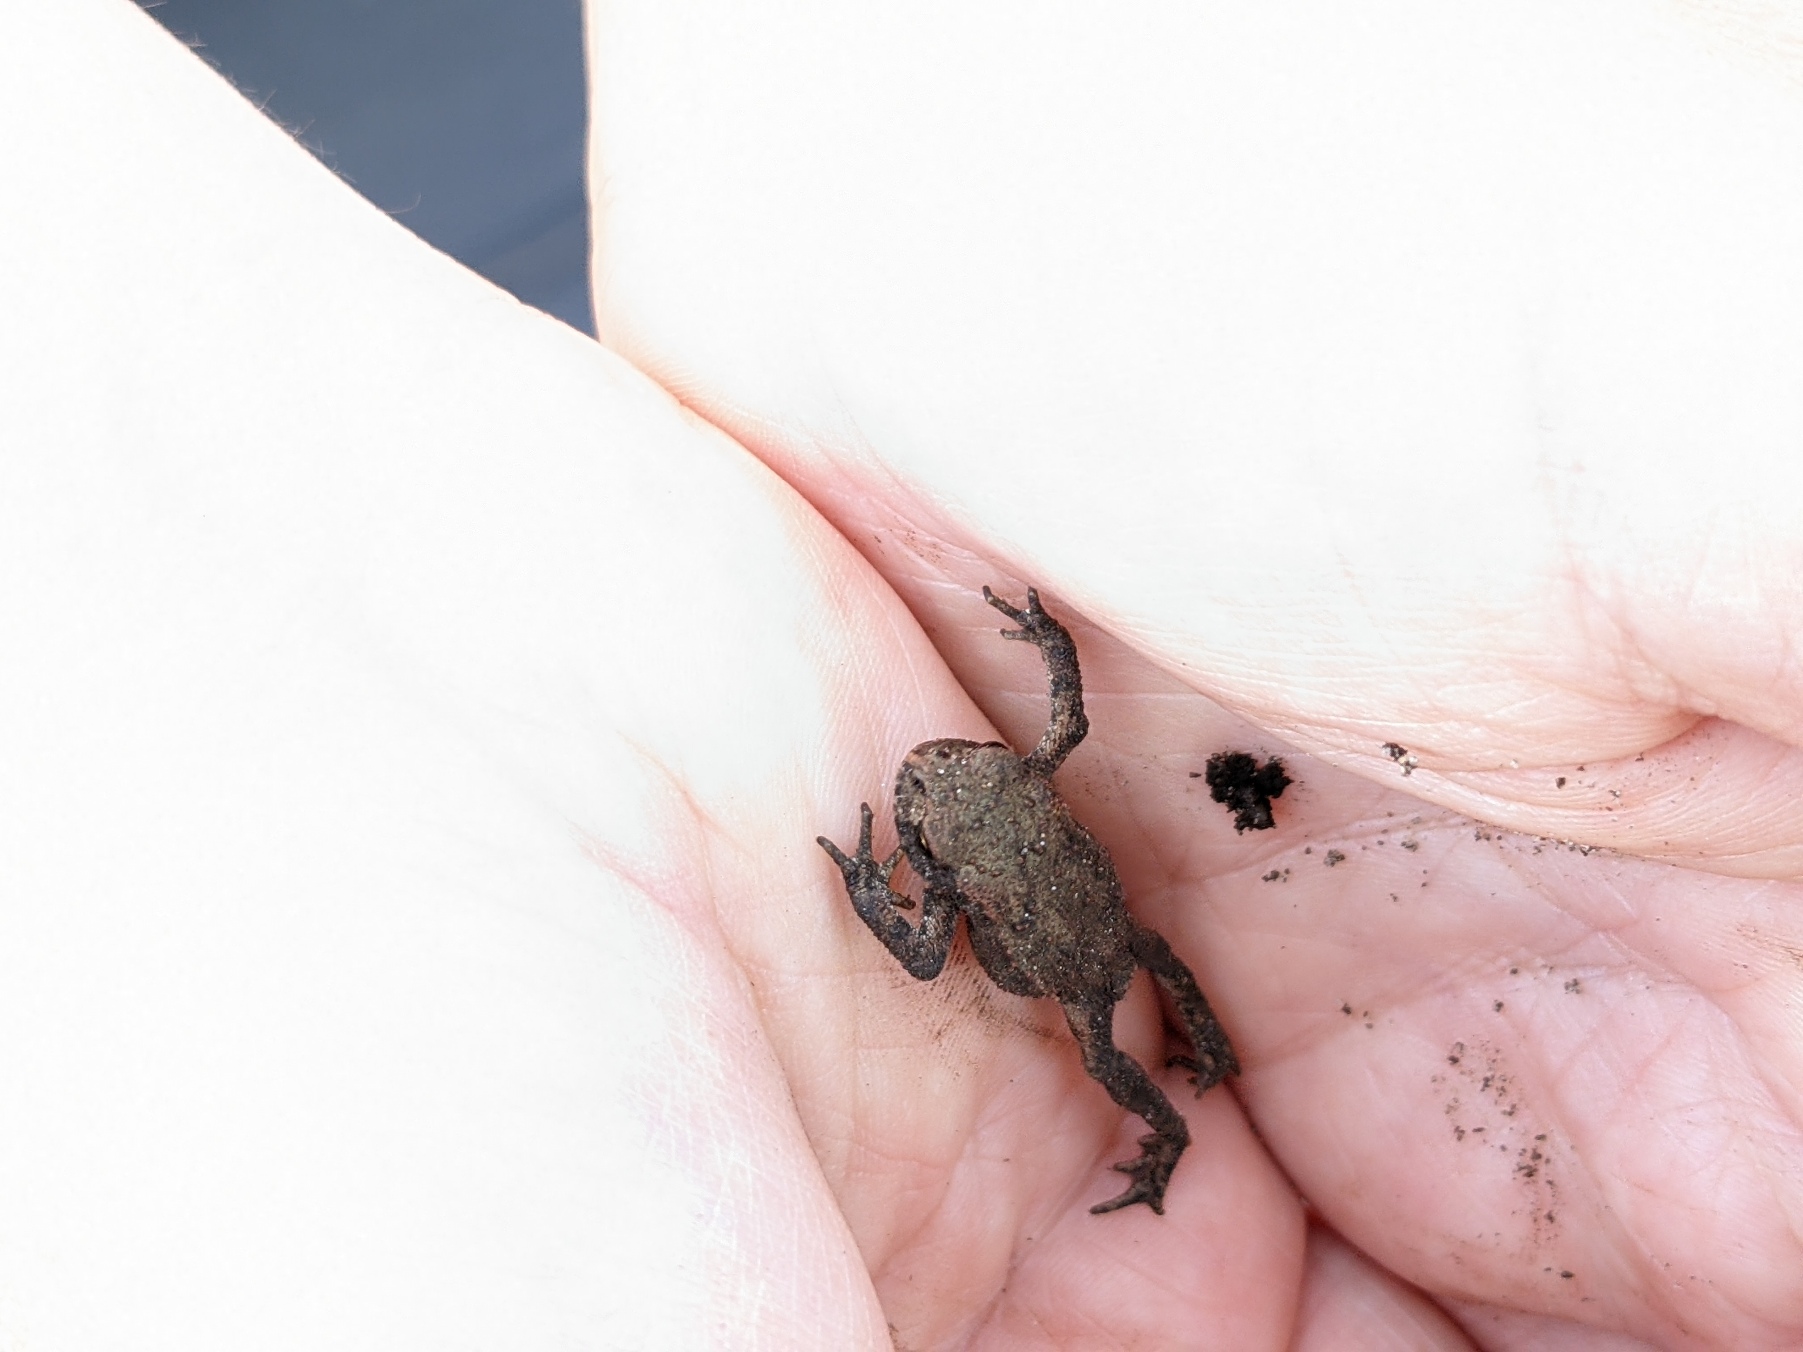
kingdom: Animalia
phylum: Chordata
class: Amphibia
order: Anura
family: Bufonidae
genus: Bufo
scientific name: Bufo bufo
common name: Skrubtudse
